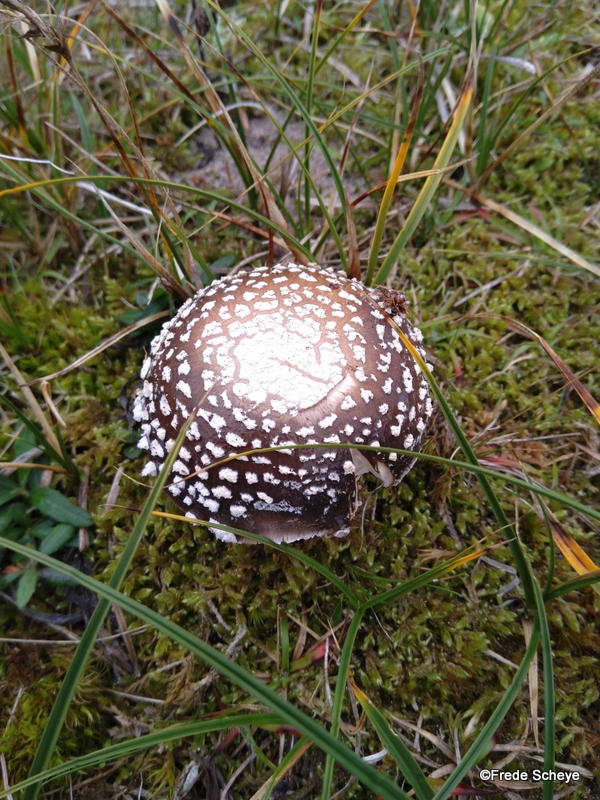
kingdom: Fungi
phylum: Basidiomycota
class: Agaricomycetes
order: Agaricales
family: Amanitaceae
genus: Amanita
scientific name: Amanita pantherina
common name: panter-fluesvamp
